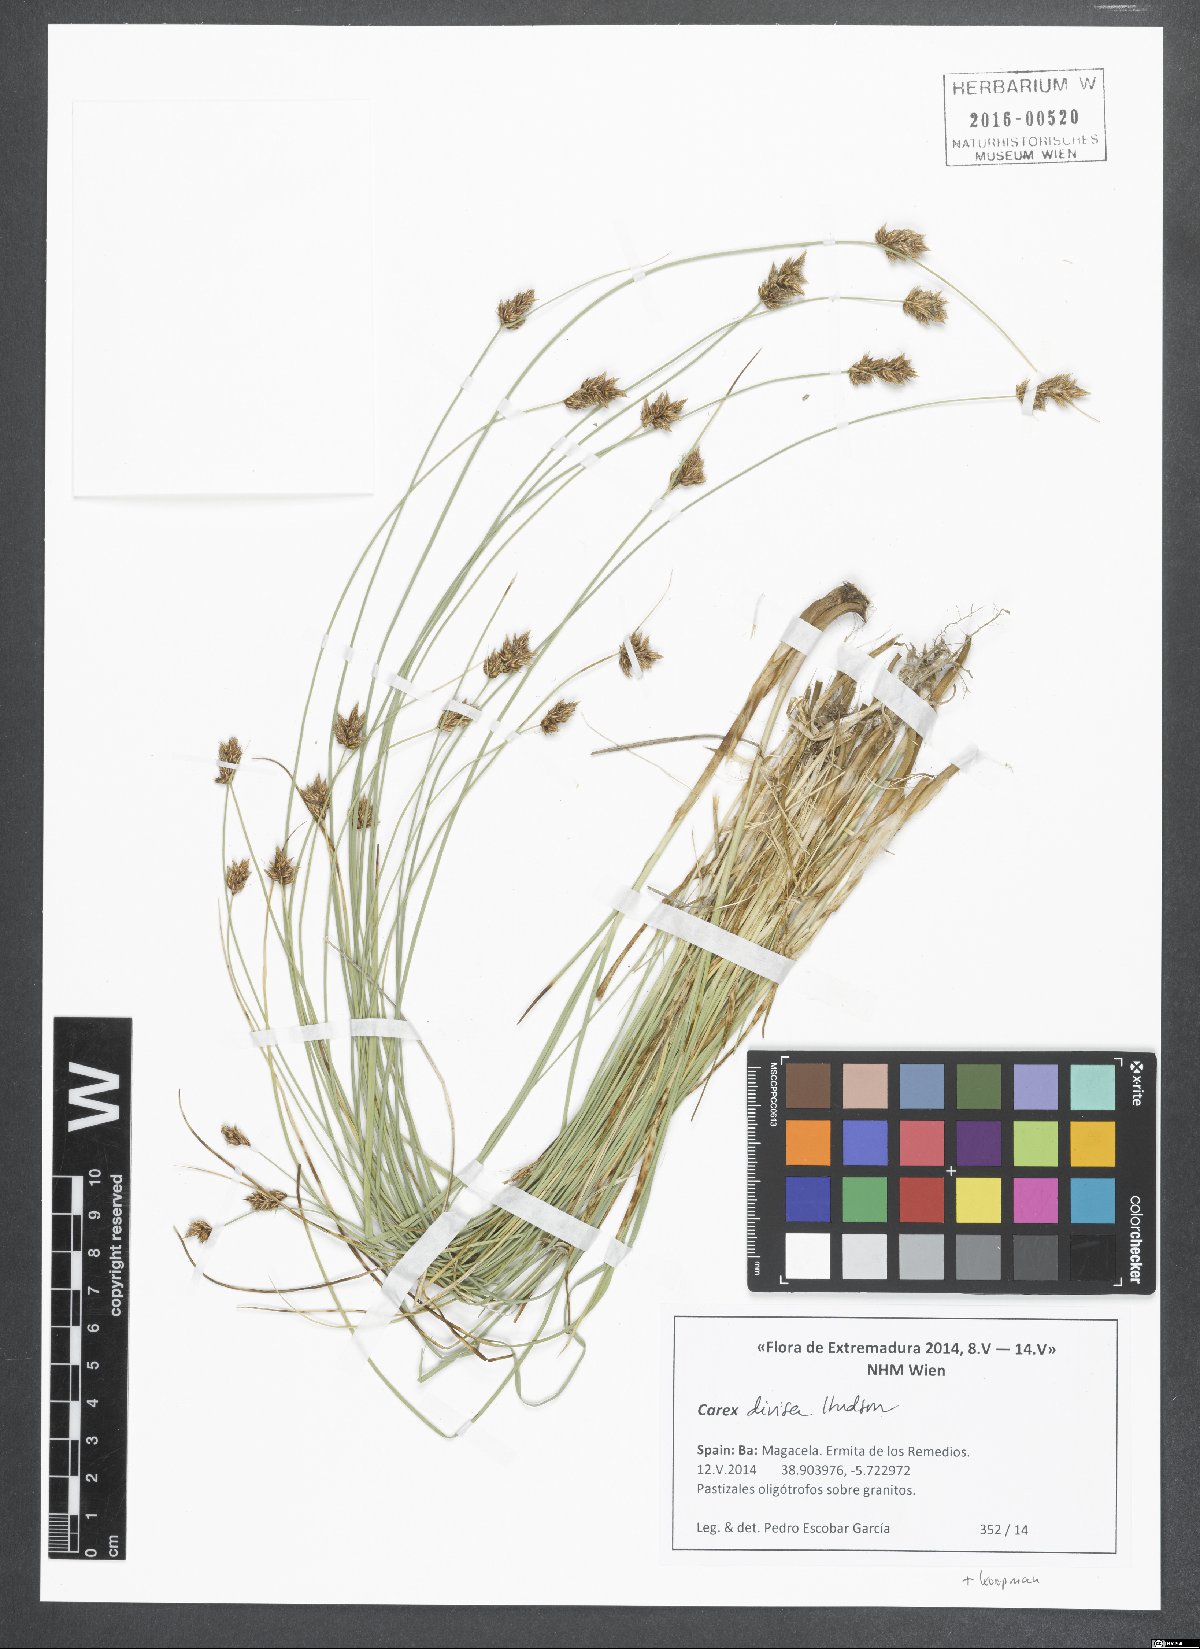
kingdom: Plantae
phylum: Tracheophyta
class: Liliopsida
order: Poales
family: Cyperaceae
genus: Carex
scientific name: Carex divisa
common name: Divided sedge
